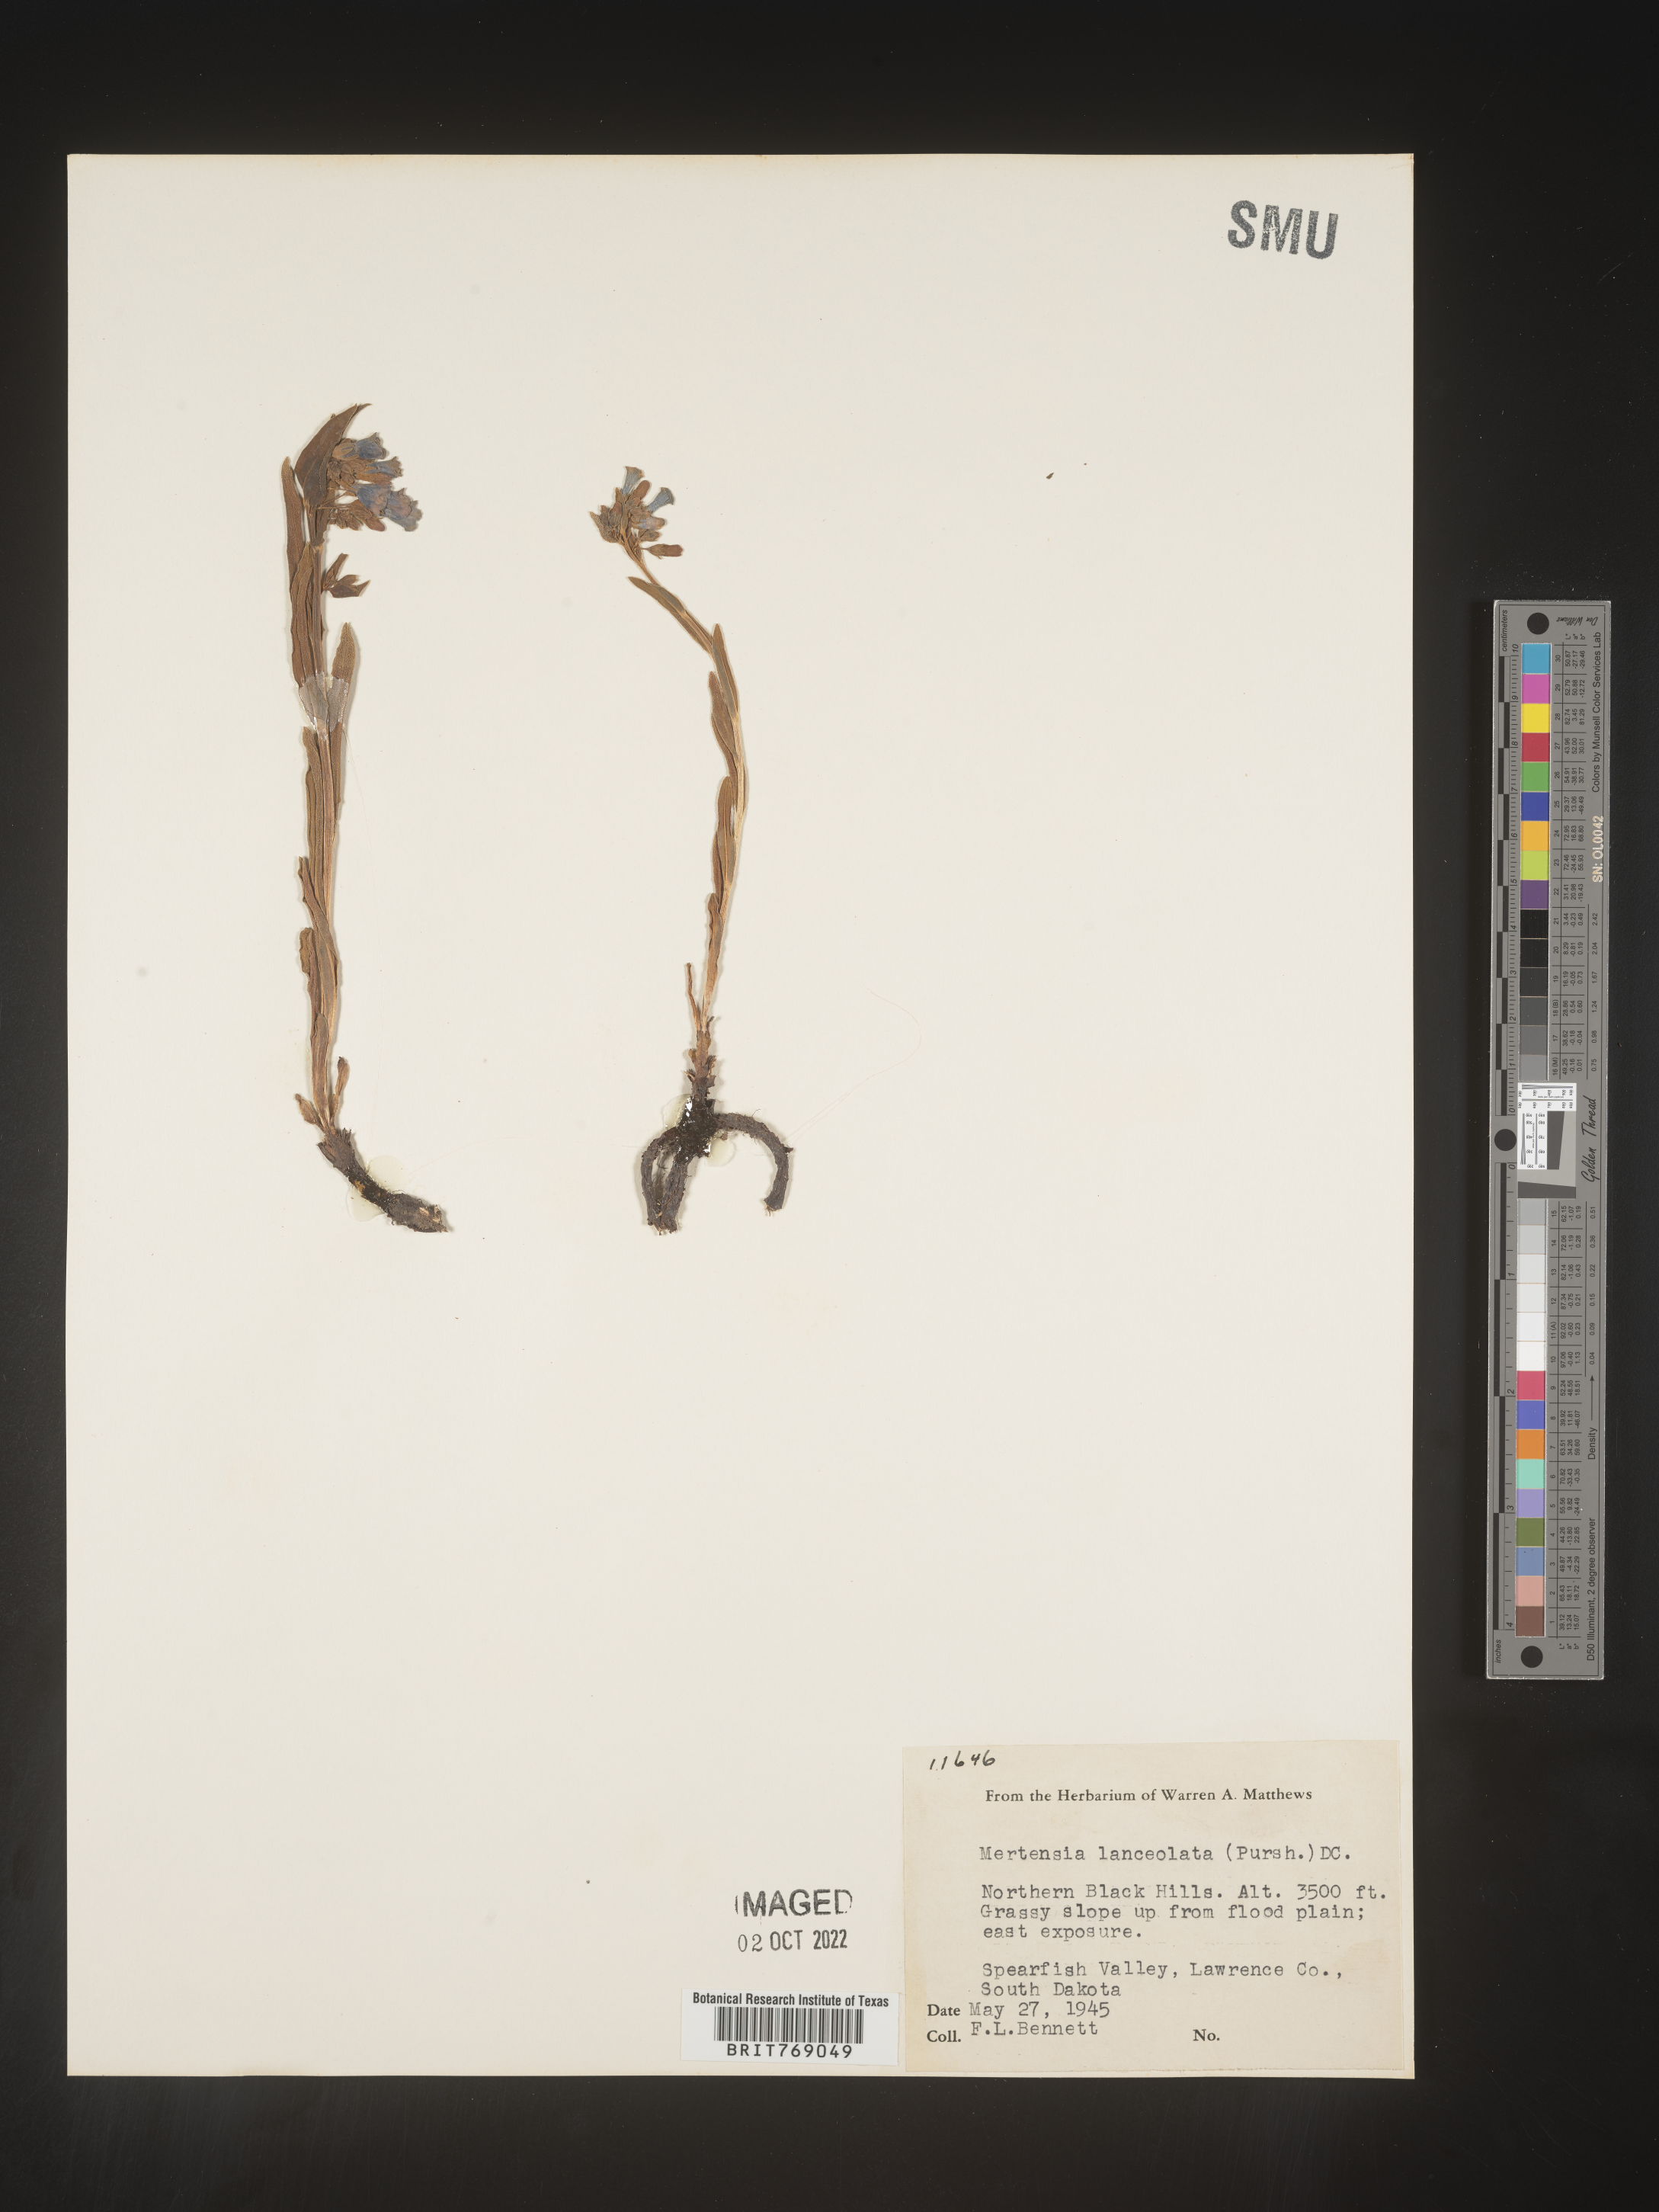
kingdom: Plantae
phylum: Tracheophyta
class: Magnoliopsida
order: Boraginales
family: Boraginaceae
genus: Mertensia
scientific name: Mertensia
